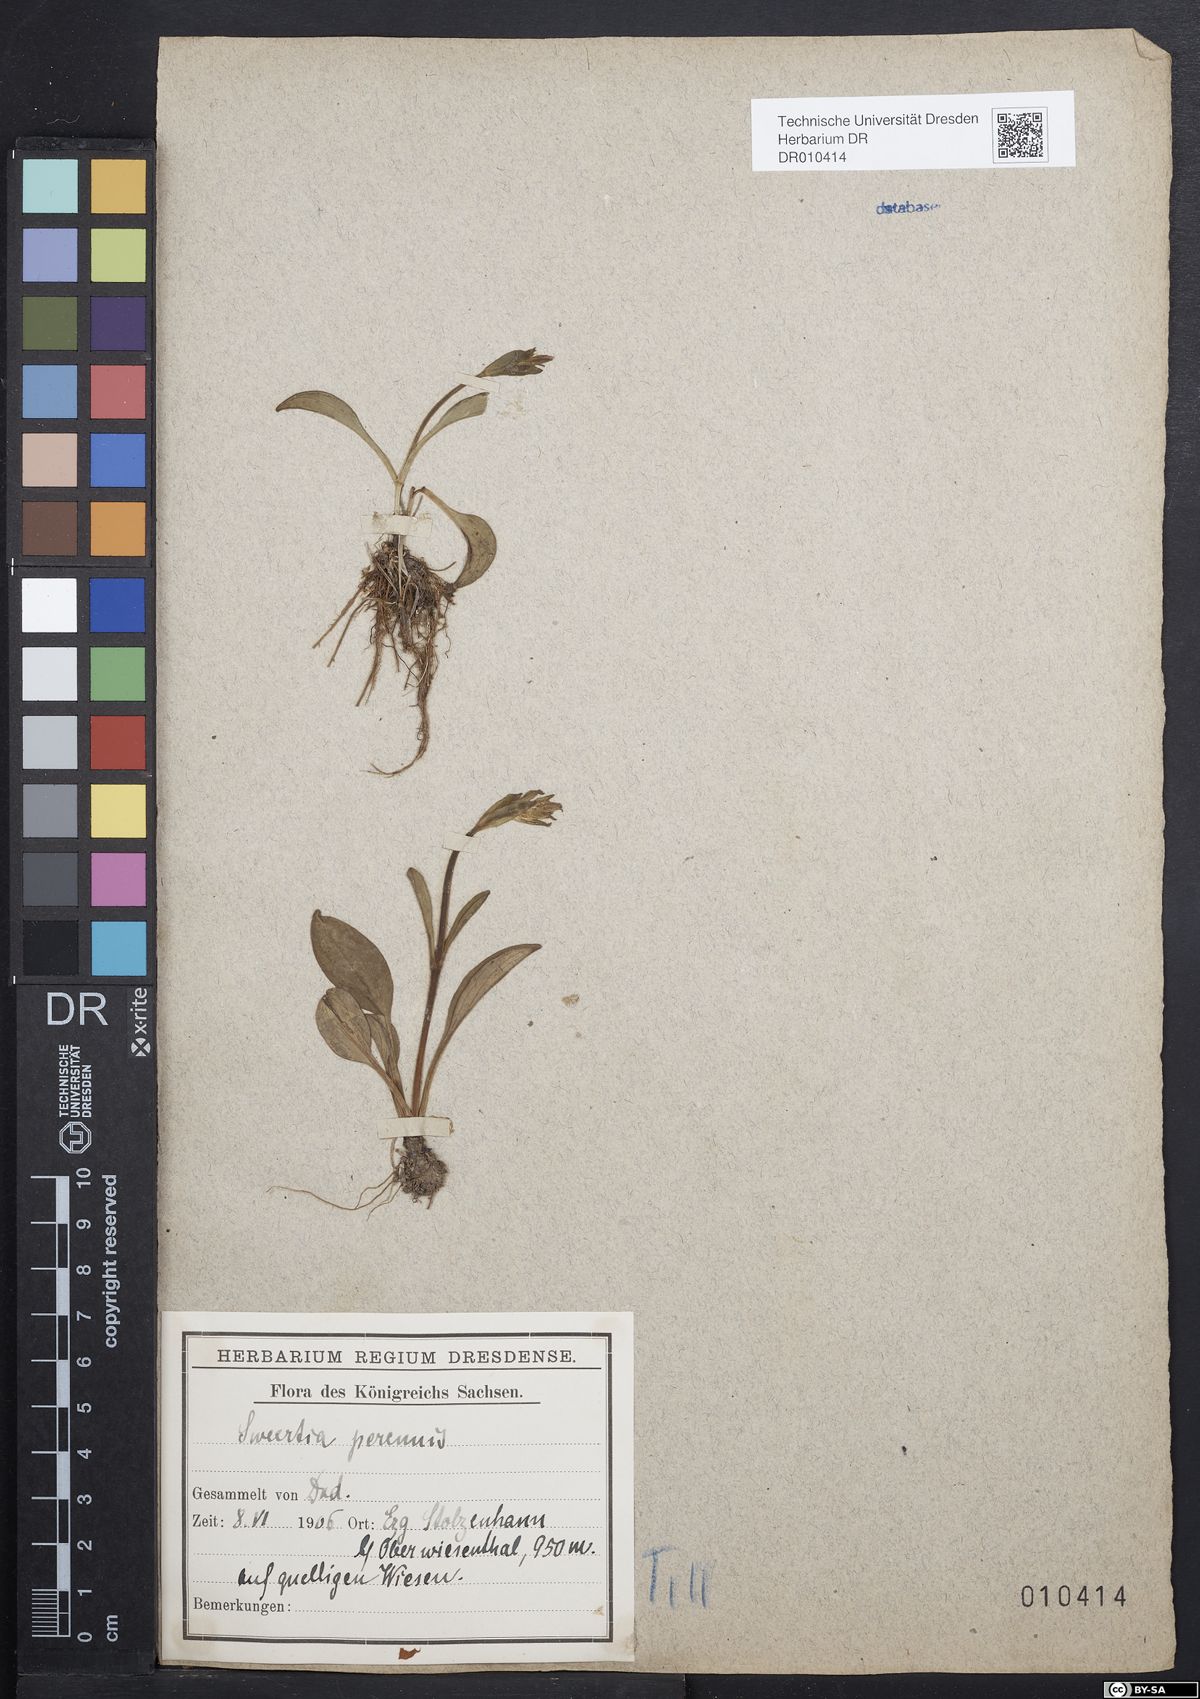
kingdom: Plantae
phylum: Tracheophyta
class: Magnoliopsida
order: Gentianales
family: Gentianaceae
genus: Swertia
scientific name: Swertia perennis
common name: Alpine bog swertia
